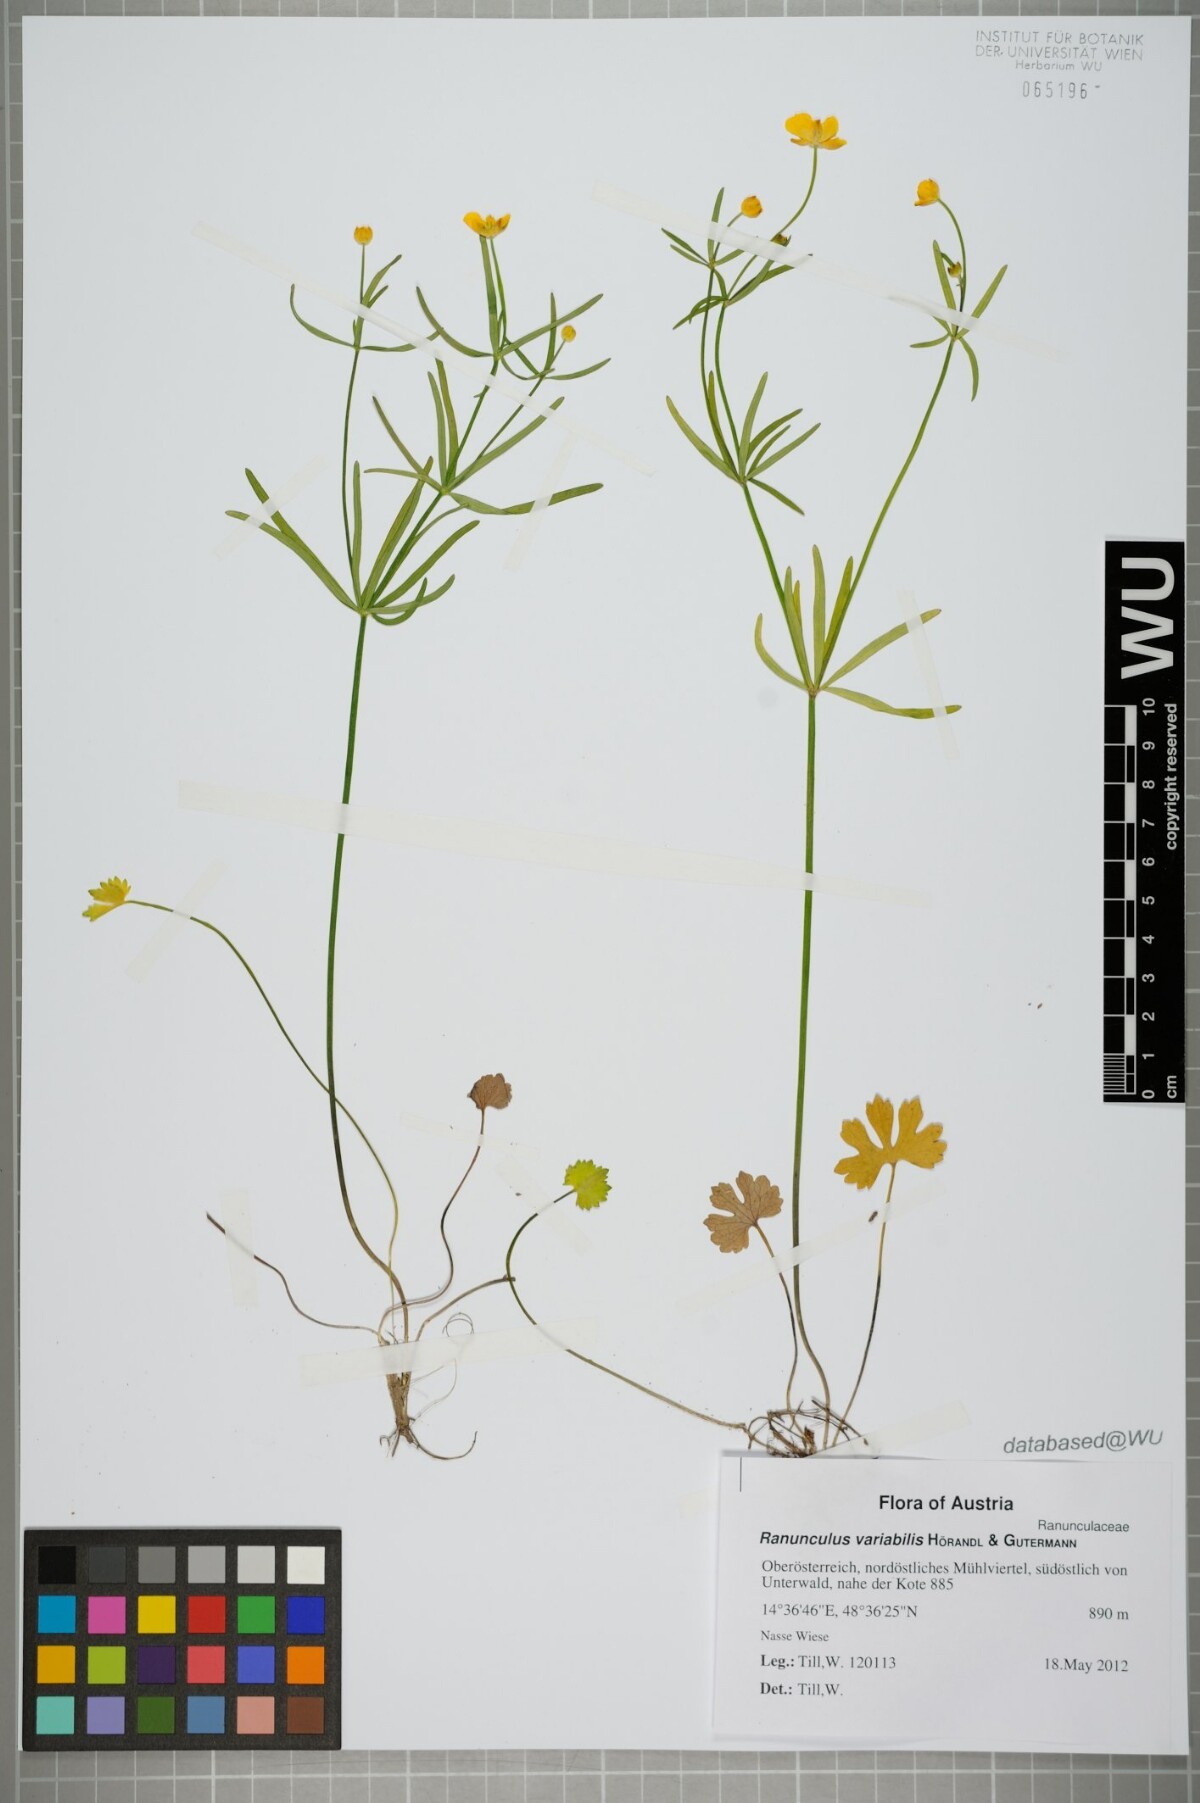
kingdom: Plantae
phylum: Tracheophyta
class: Magnoliopsida
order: Ranunculales
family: Ranunculaceae
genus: Ranunculus
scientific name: Ranunculus variabilis
